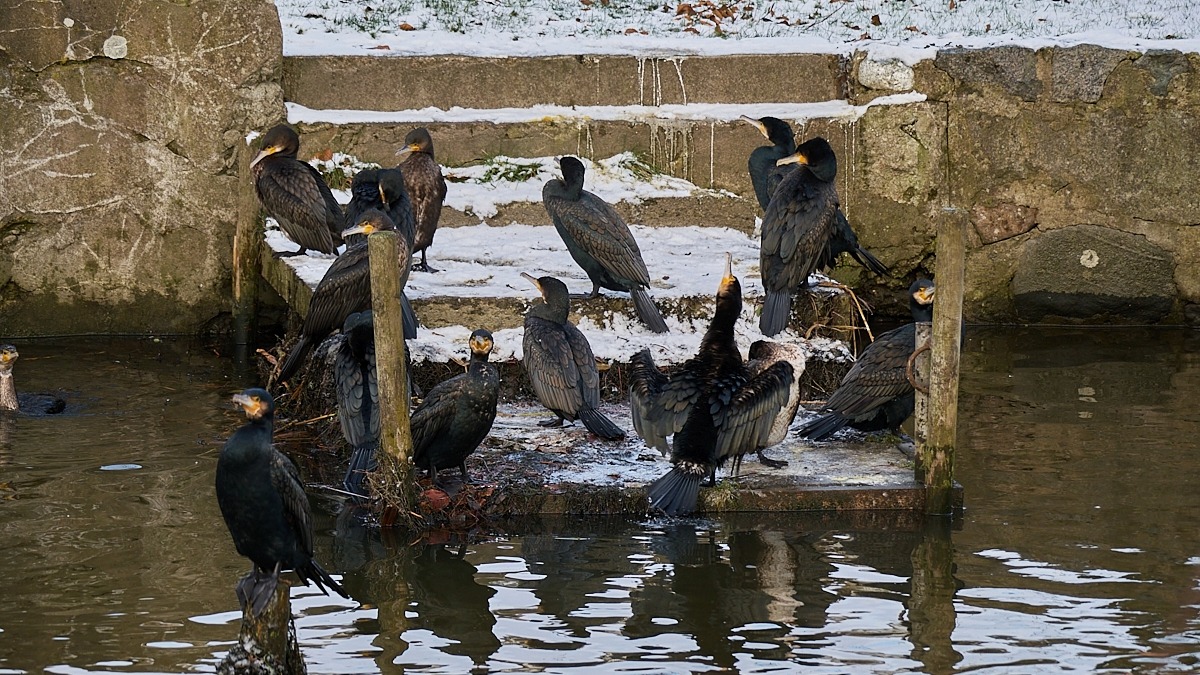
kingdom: Animalia
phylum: Chordata
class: Aves
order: Suliformes
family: Phalacrocoracidae
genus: Phalacrocorax
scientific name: Phalacrocorax carbo
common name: Skarv
